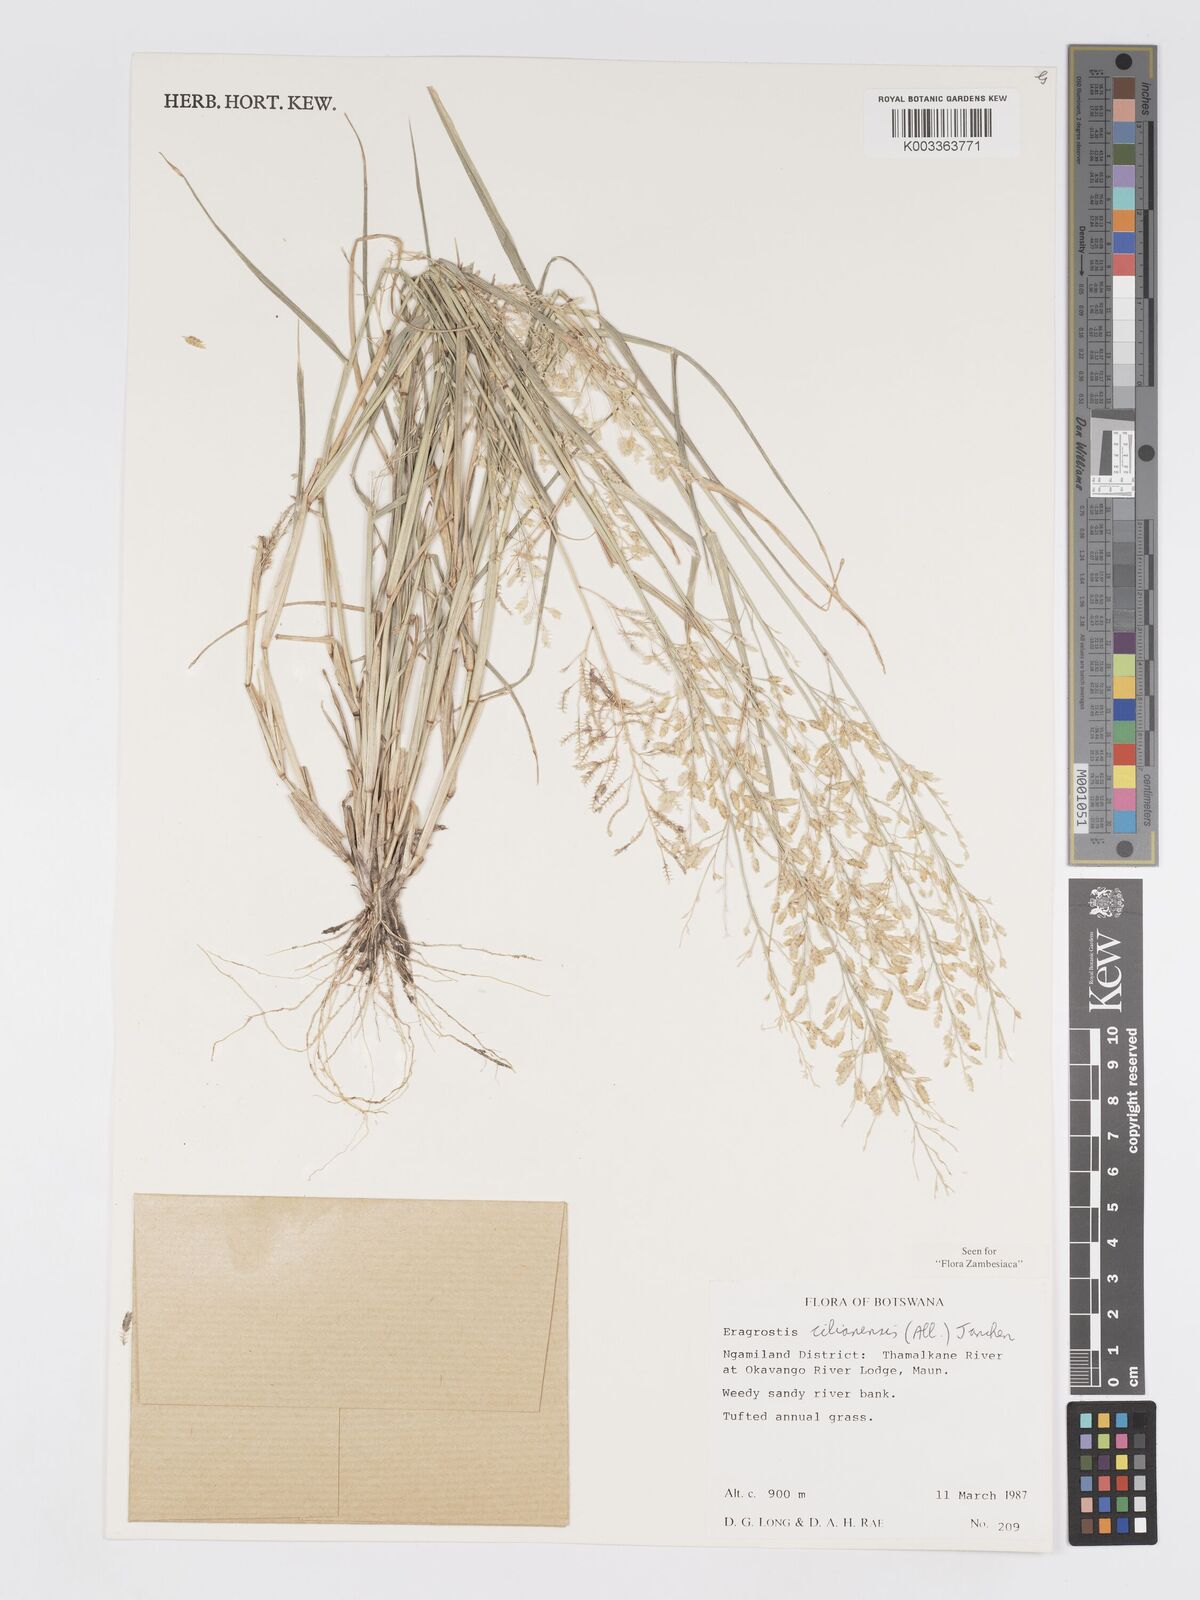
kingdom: Plantae
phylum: Tracheophyta
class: Liliopsida
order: Poales
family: Poaceae
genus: Eragrostis
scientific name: Eragrostis cilianensis
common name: Stinkgrass
